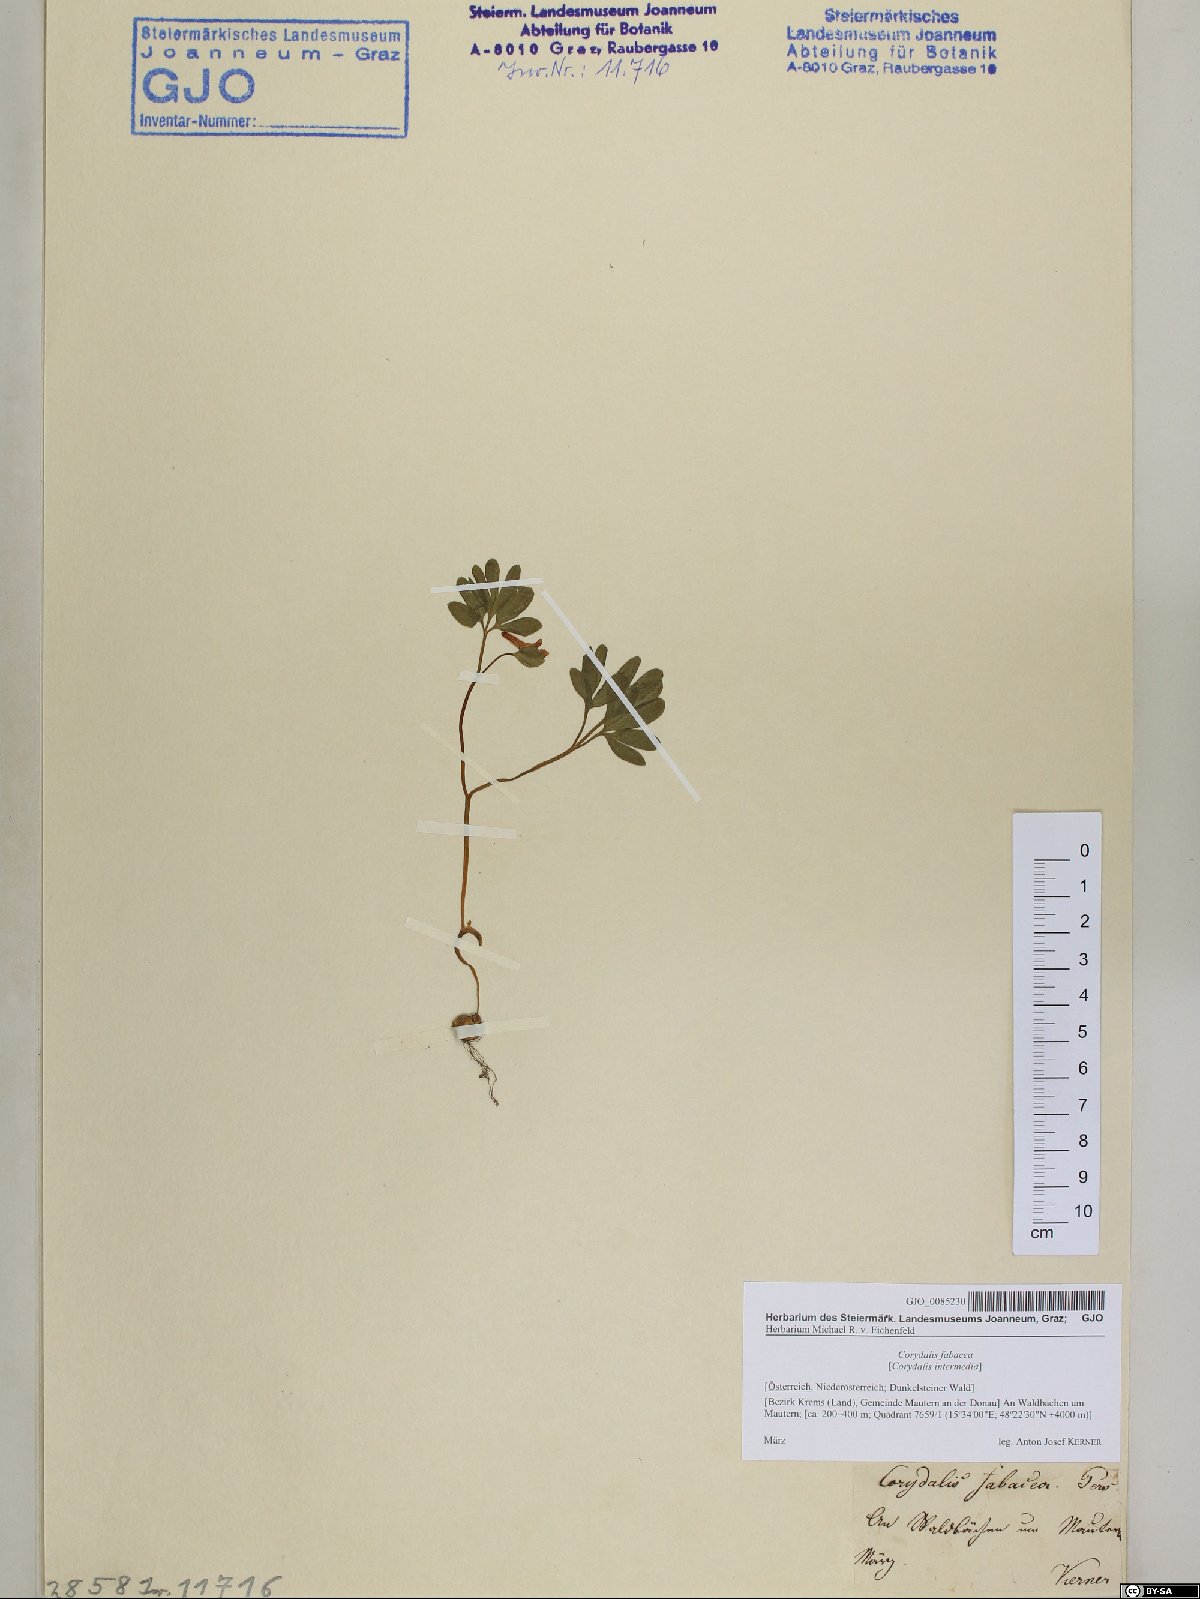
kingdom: Plantae
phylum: Tracheophyta
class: Magnoliopsida
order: Ranunculales
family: Papaveraceae
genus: Corydalis
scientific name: Corydalis intermedia
